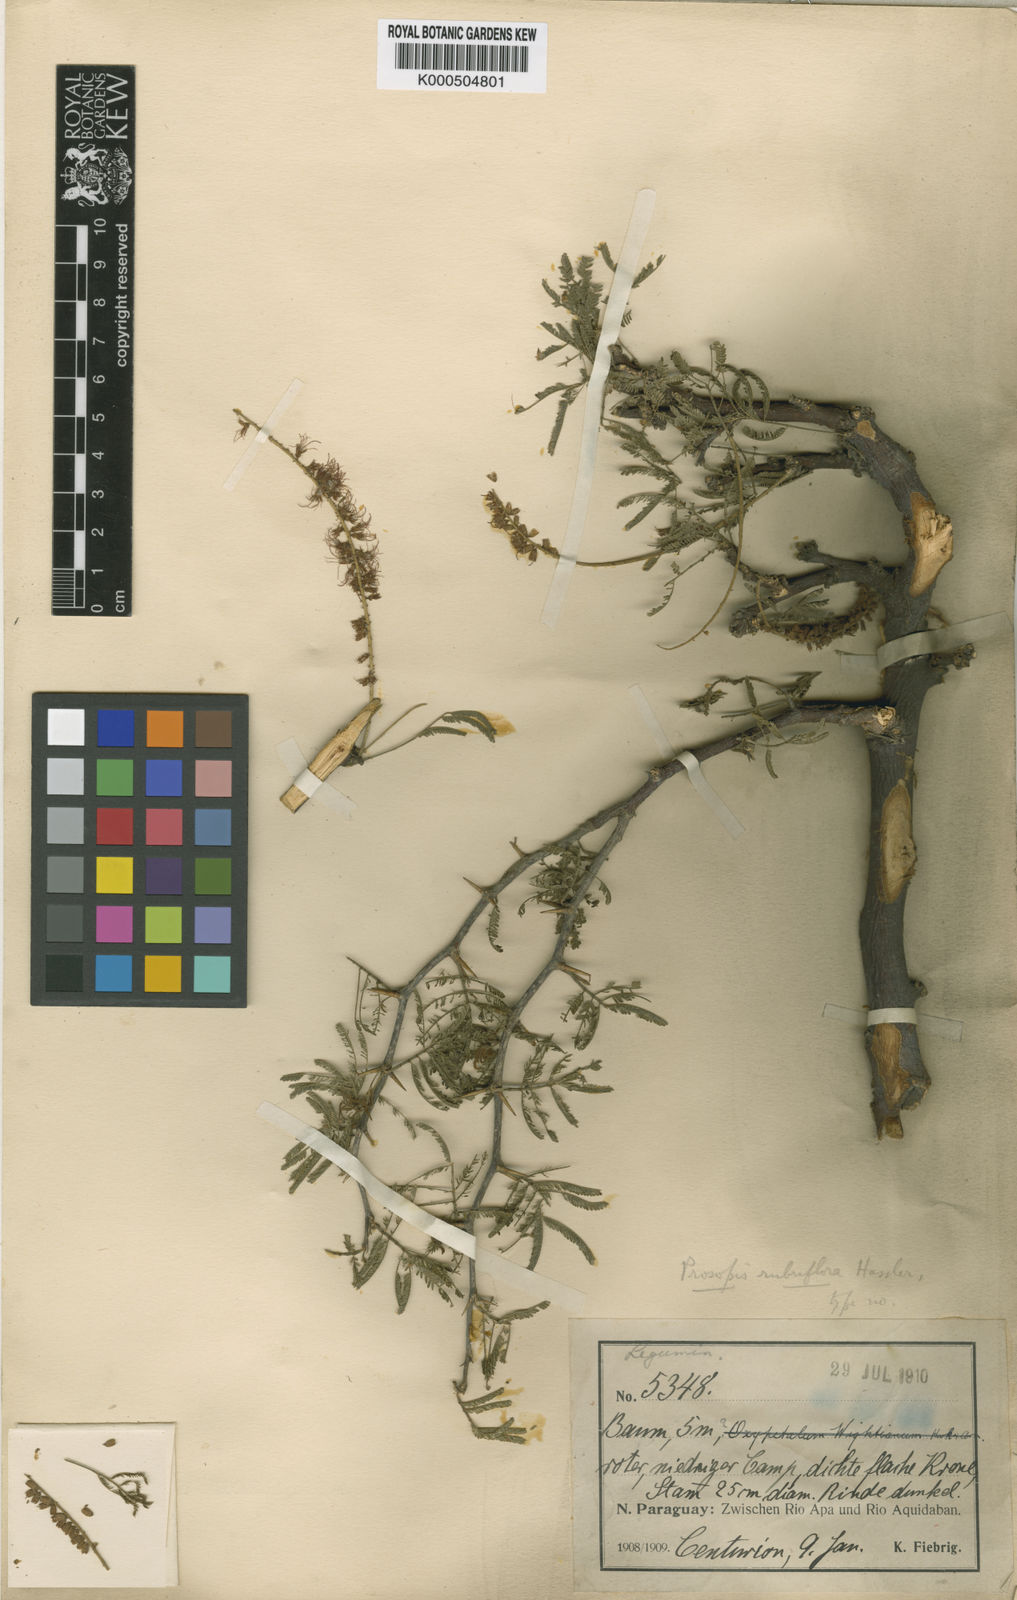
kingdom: Plantae
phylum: Tracheophyta
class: Magnoliopsida
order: Fabales
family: Fabaceae
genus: Prosopis
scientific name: Prosopis
